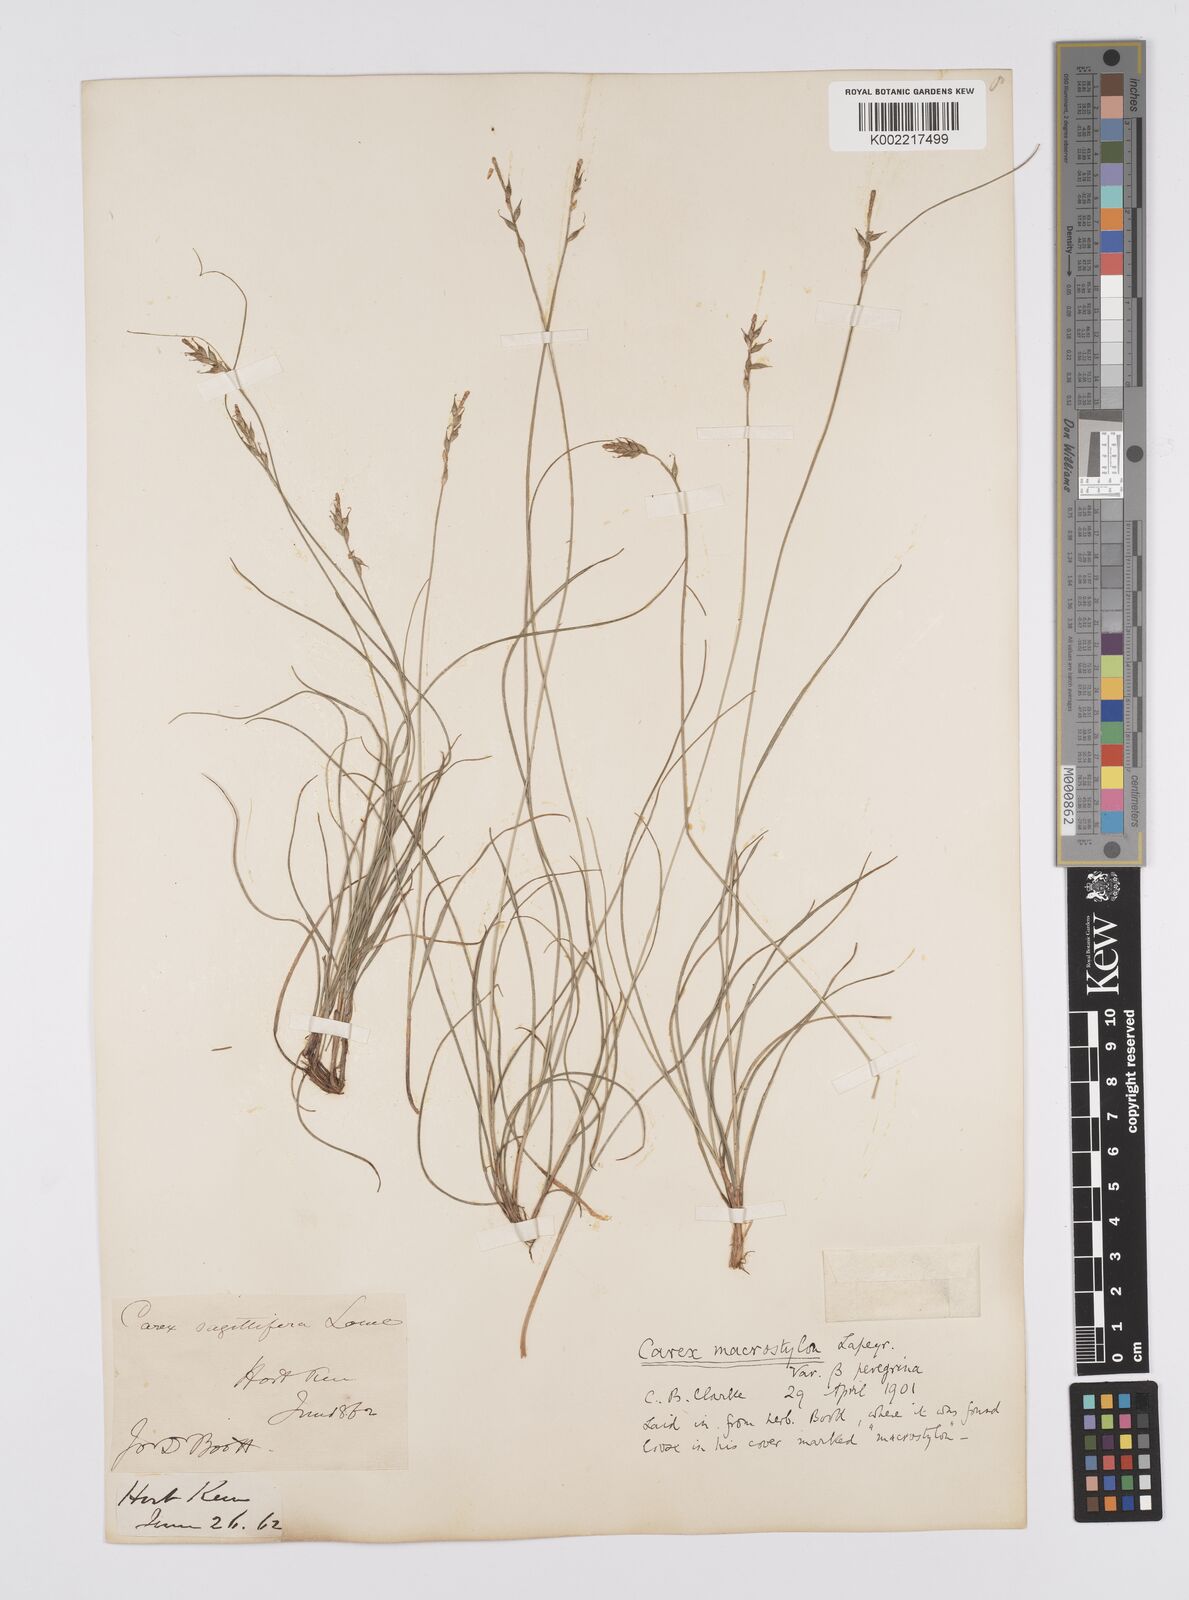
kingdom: Plantae
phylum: Tracheophyta
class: Liliopsida
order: Poales
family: Cyperaceae
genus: Carex
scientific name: Carex peregrina
